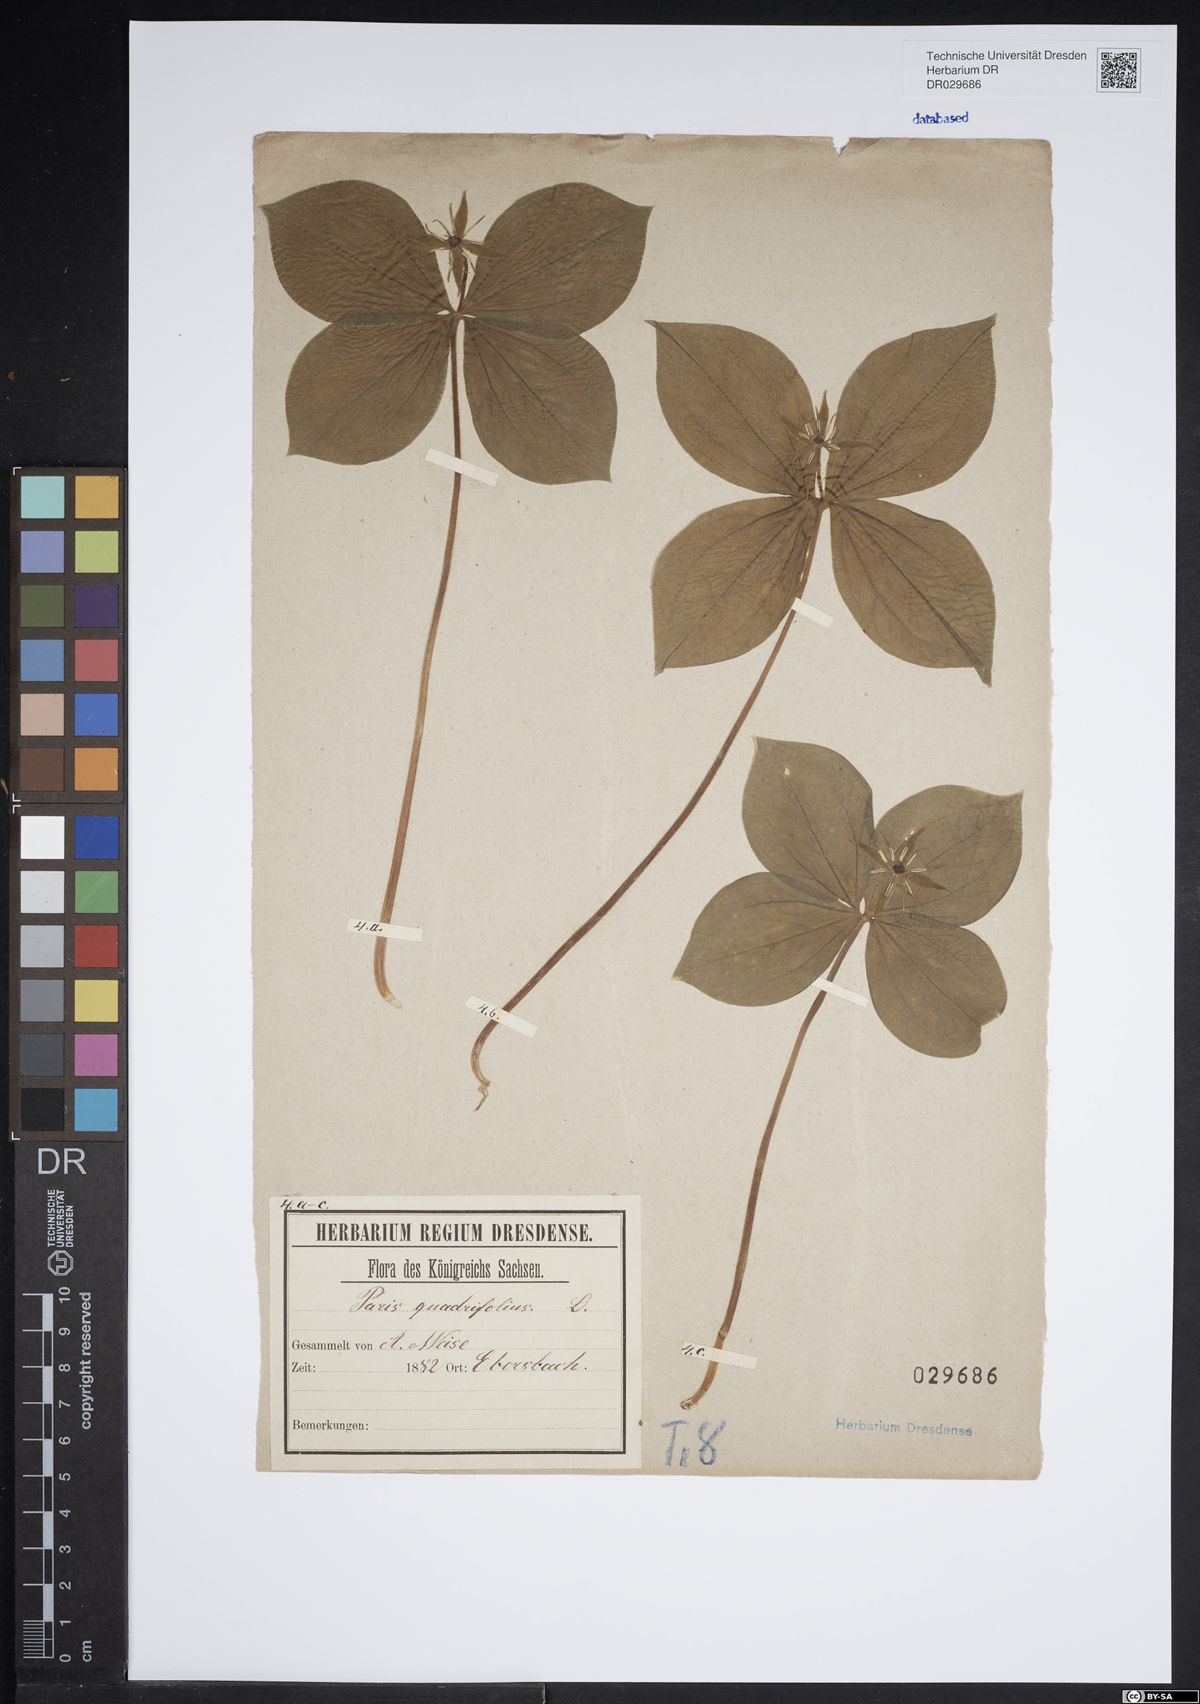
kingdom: Plantae
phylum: Tracheophyta
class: Liliopsida
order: Liliales
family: Melanthiaceae
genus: Paris
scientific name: Paris quadrifolia
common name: Herb-paris
